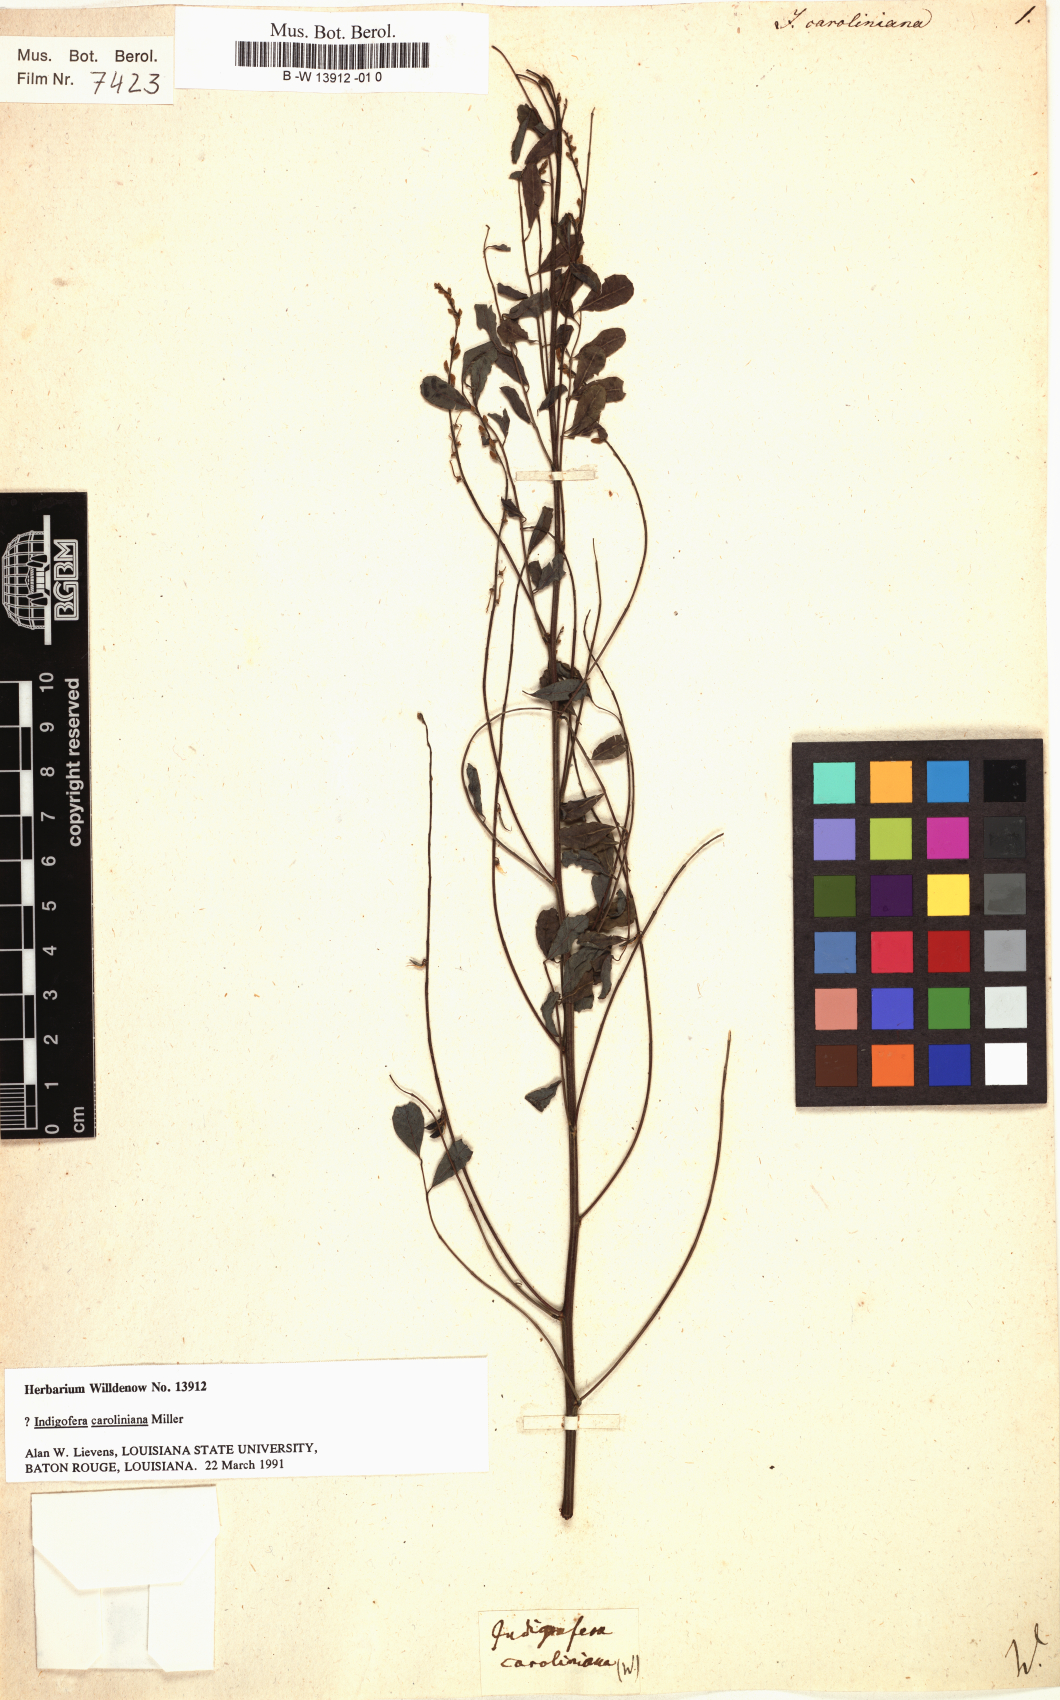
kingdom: Plantae
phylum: Tracheophyta
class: Magnoliopsida
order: Fabales
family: Fabaceae
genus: Indigofera
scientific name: Indigofera caroliniana
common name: Wild indigo
